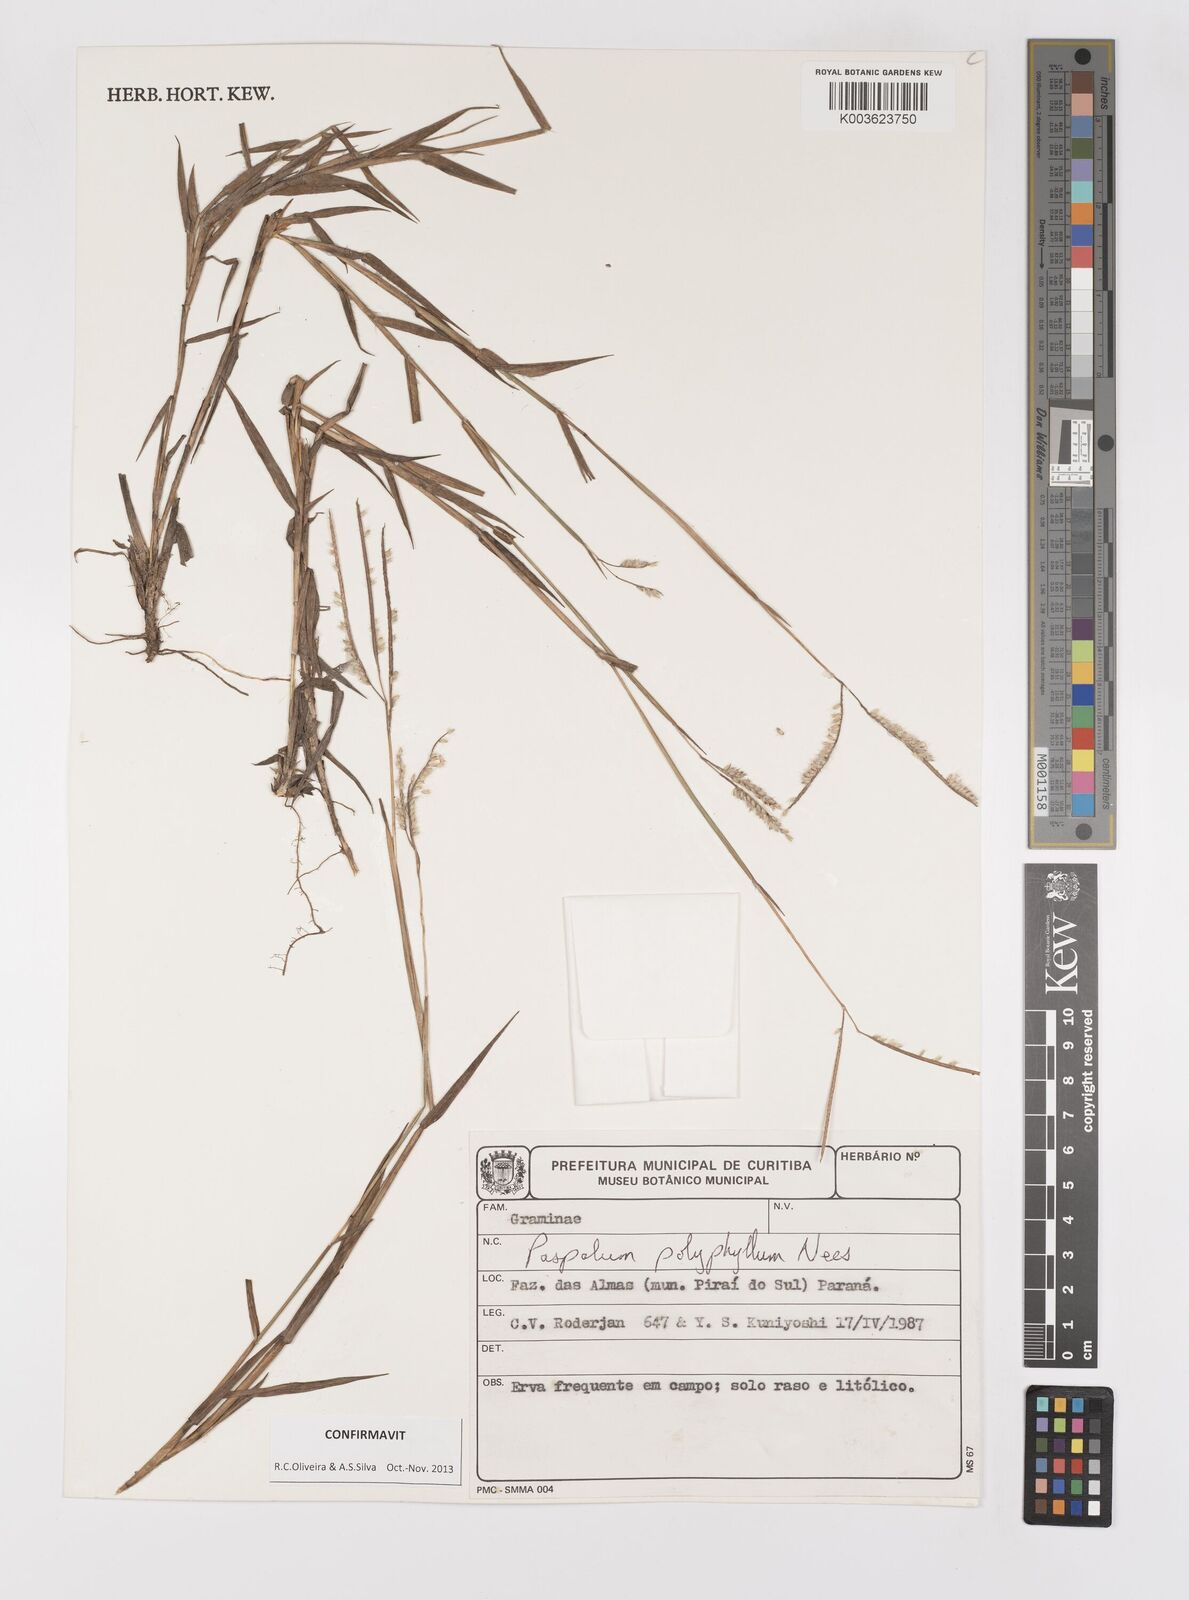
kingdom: Plantae
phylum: Tracheophyta
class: Liliopsida
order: Poales
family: Poaceae
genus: Paspalum
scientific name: Paspalum polyphyllum
